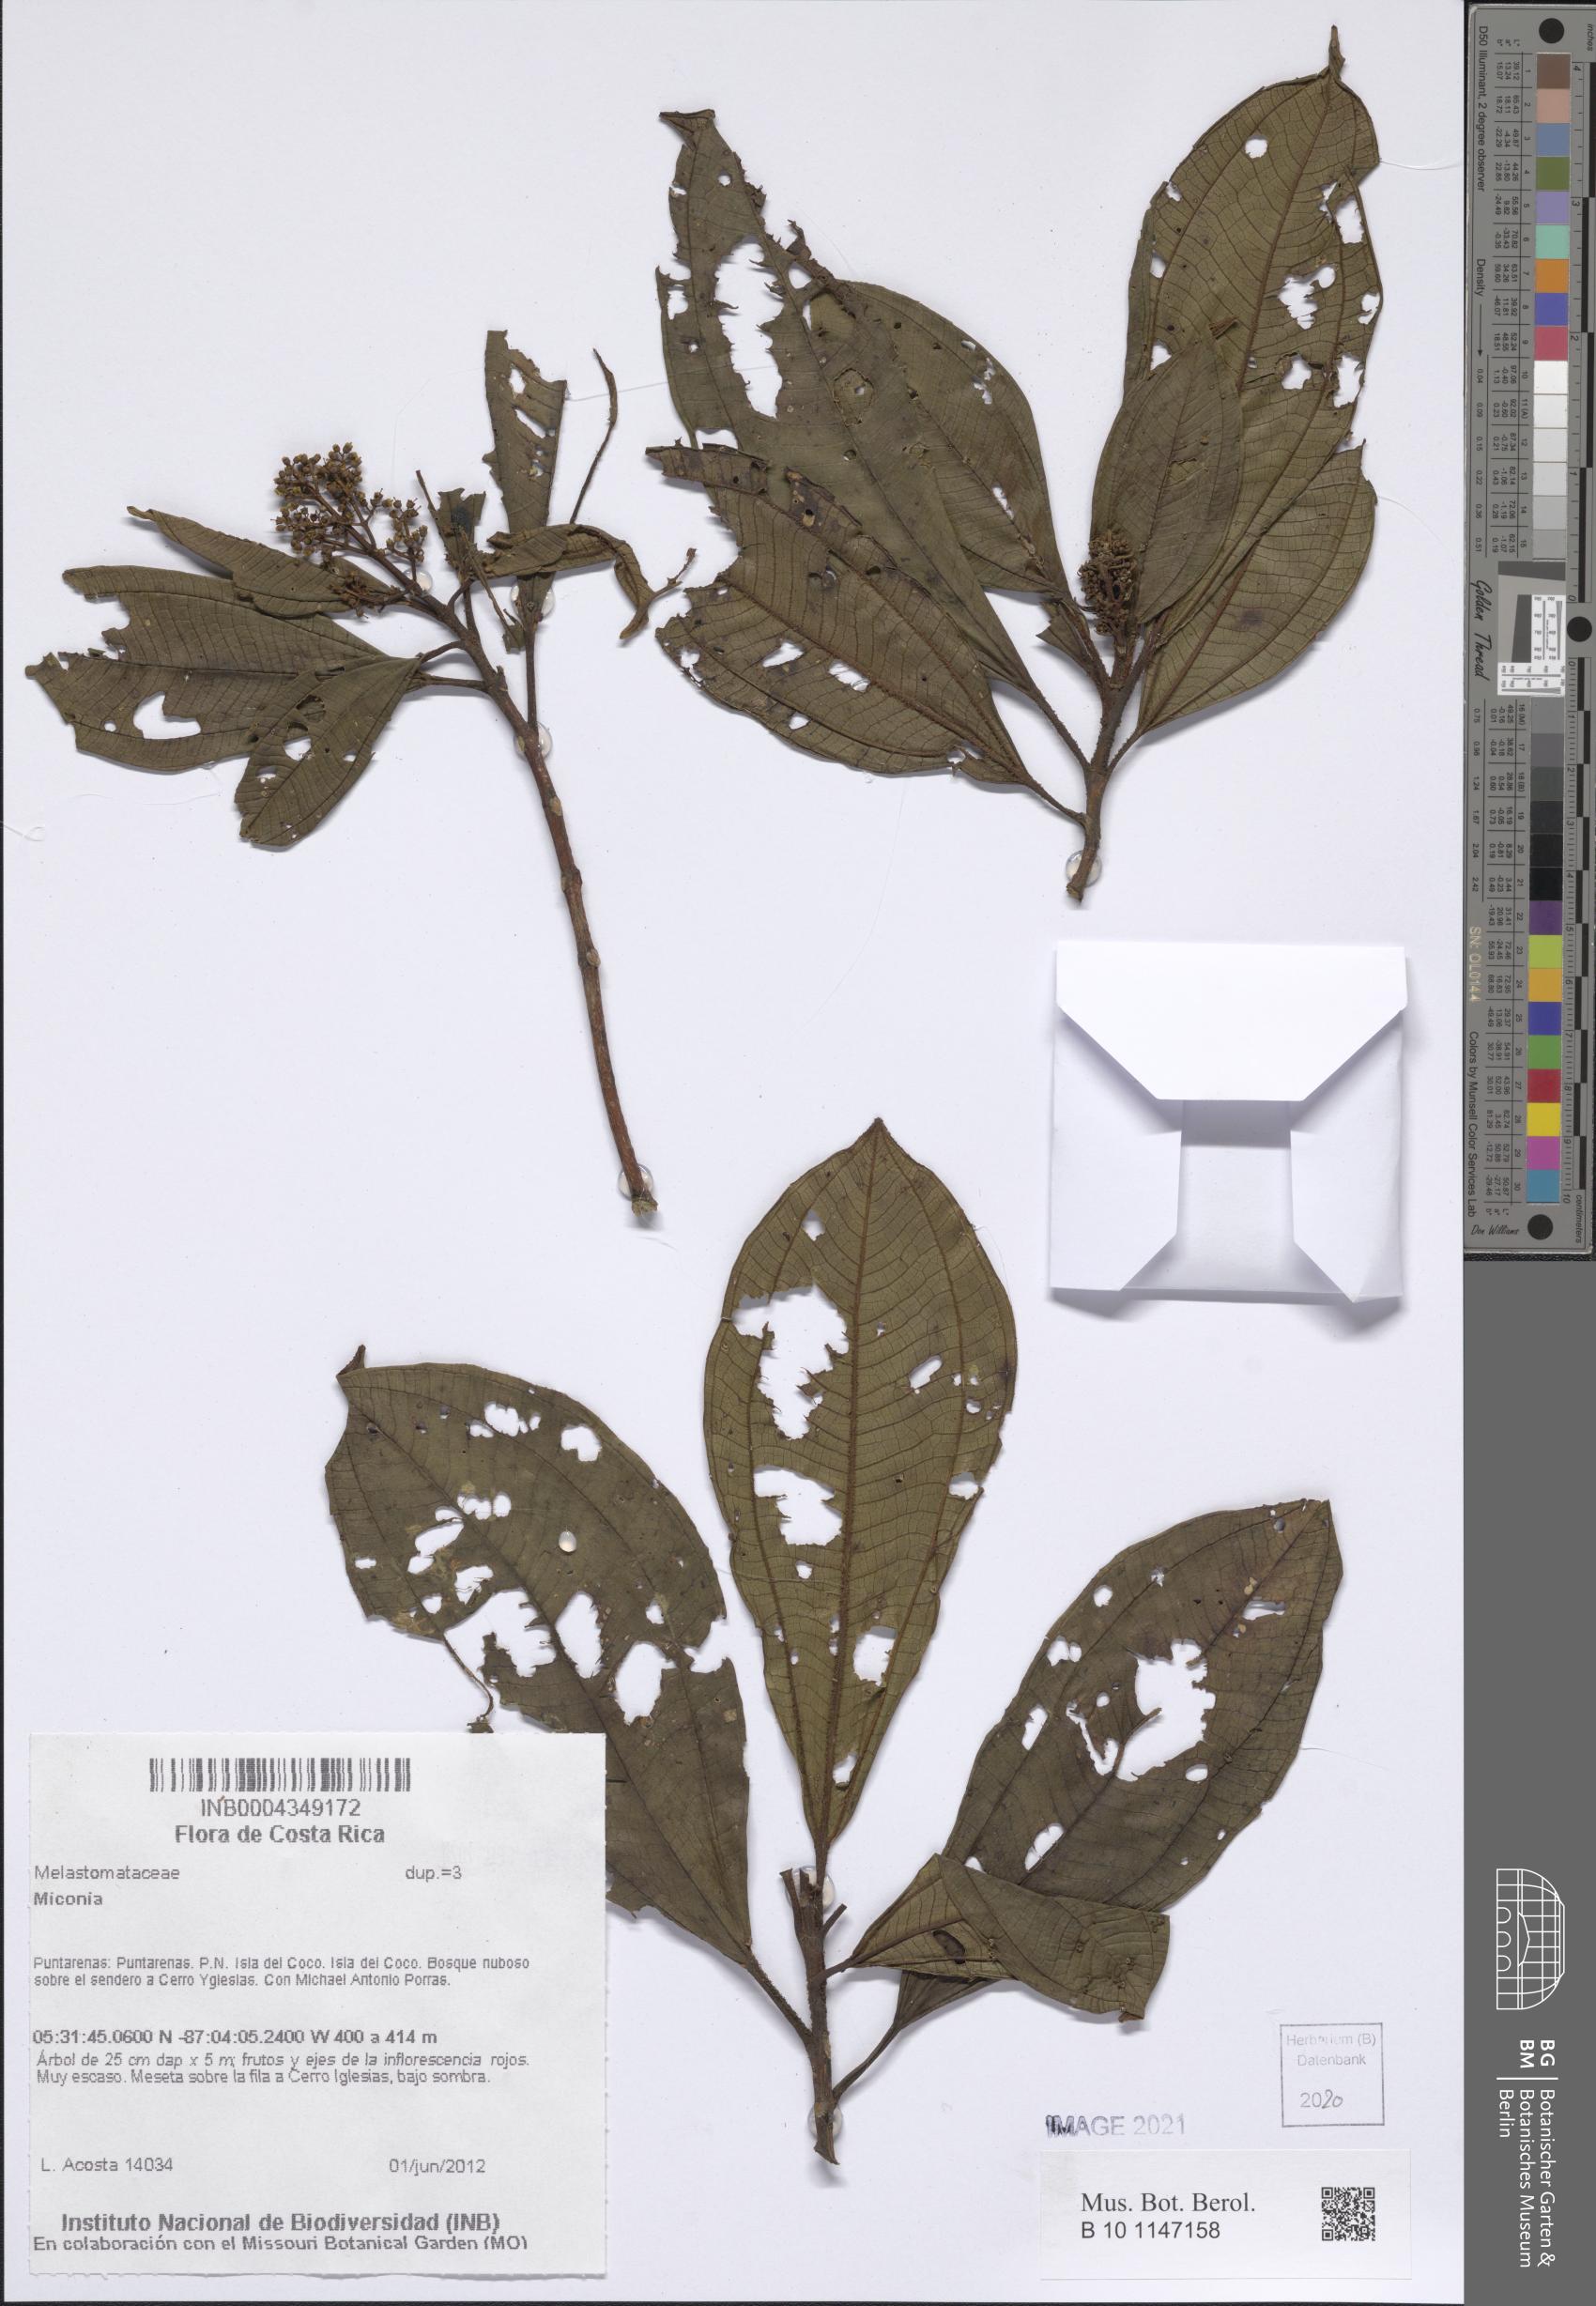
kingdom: Plantae
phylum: Tracheophyta
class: Magnoliopsida
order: Myrtales
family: Melastomataceae
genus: Miconia
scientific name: Miconia
